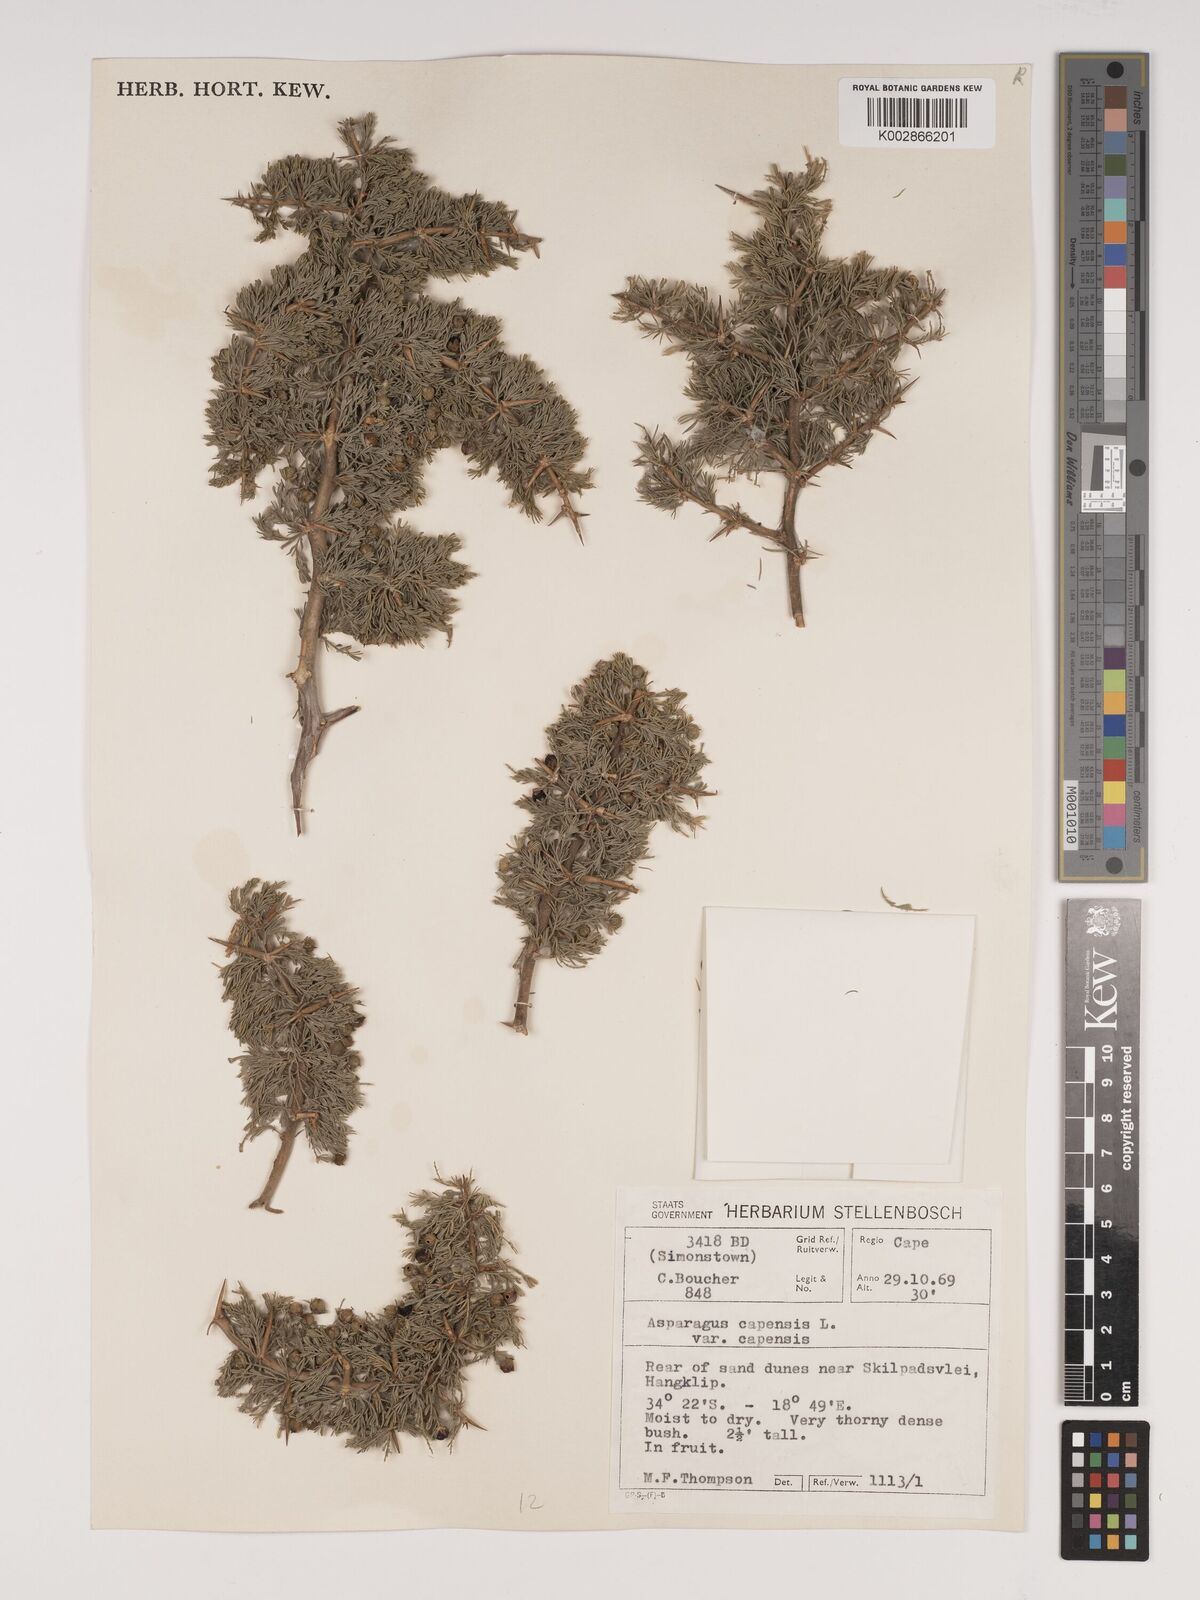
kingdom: Plantae
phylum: Tracheophyta
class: Liliopsida
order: Asparagales
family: Asparagaceae
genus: Asparagus
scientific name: Asparagus capensis
